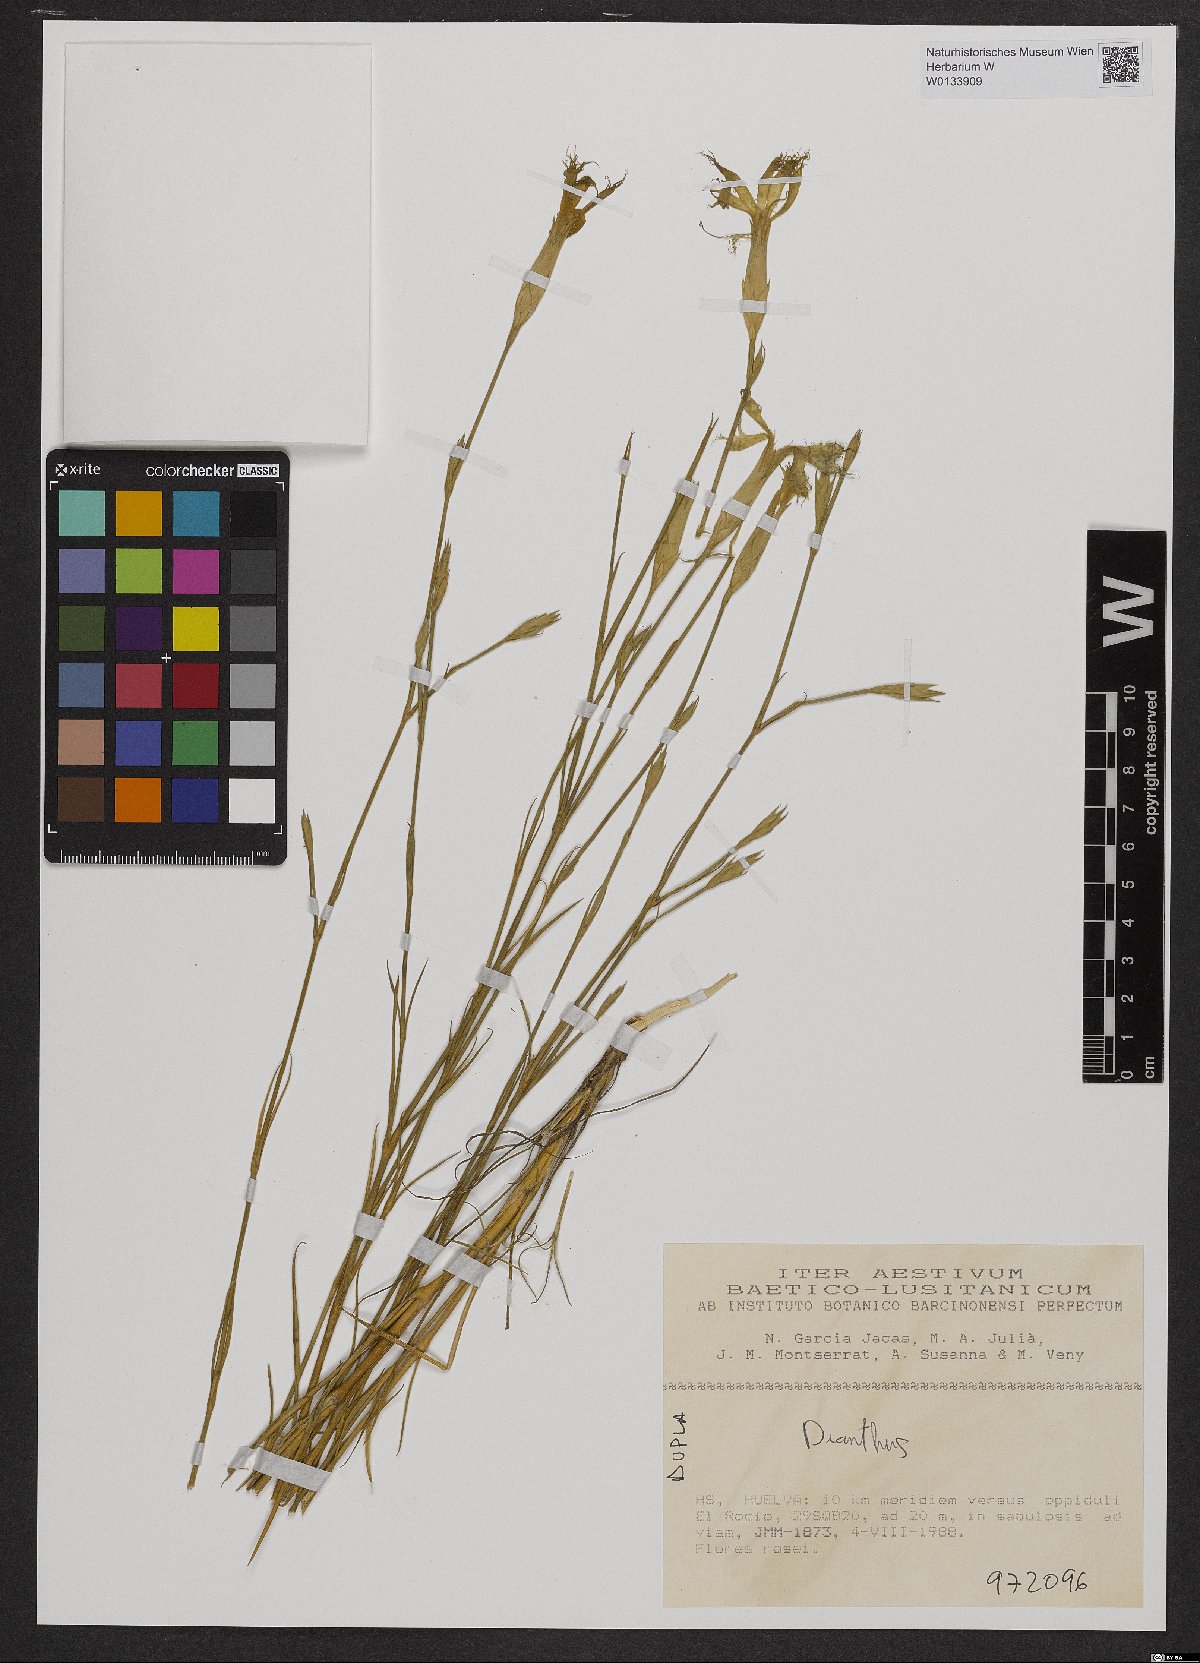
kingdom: Plantae
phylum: Tracheophyta
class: Magnoliopsida
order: Caryophyllales
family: Caryophyllaceae
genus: Dianthus
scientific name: Dianthus broteri
